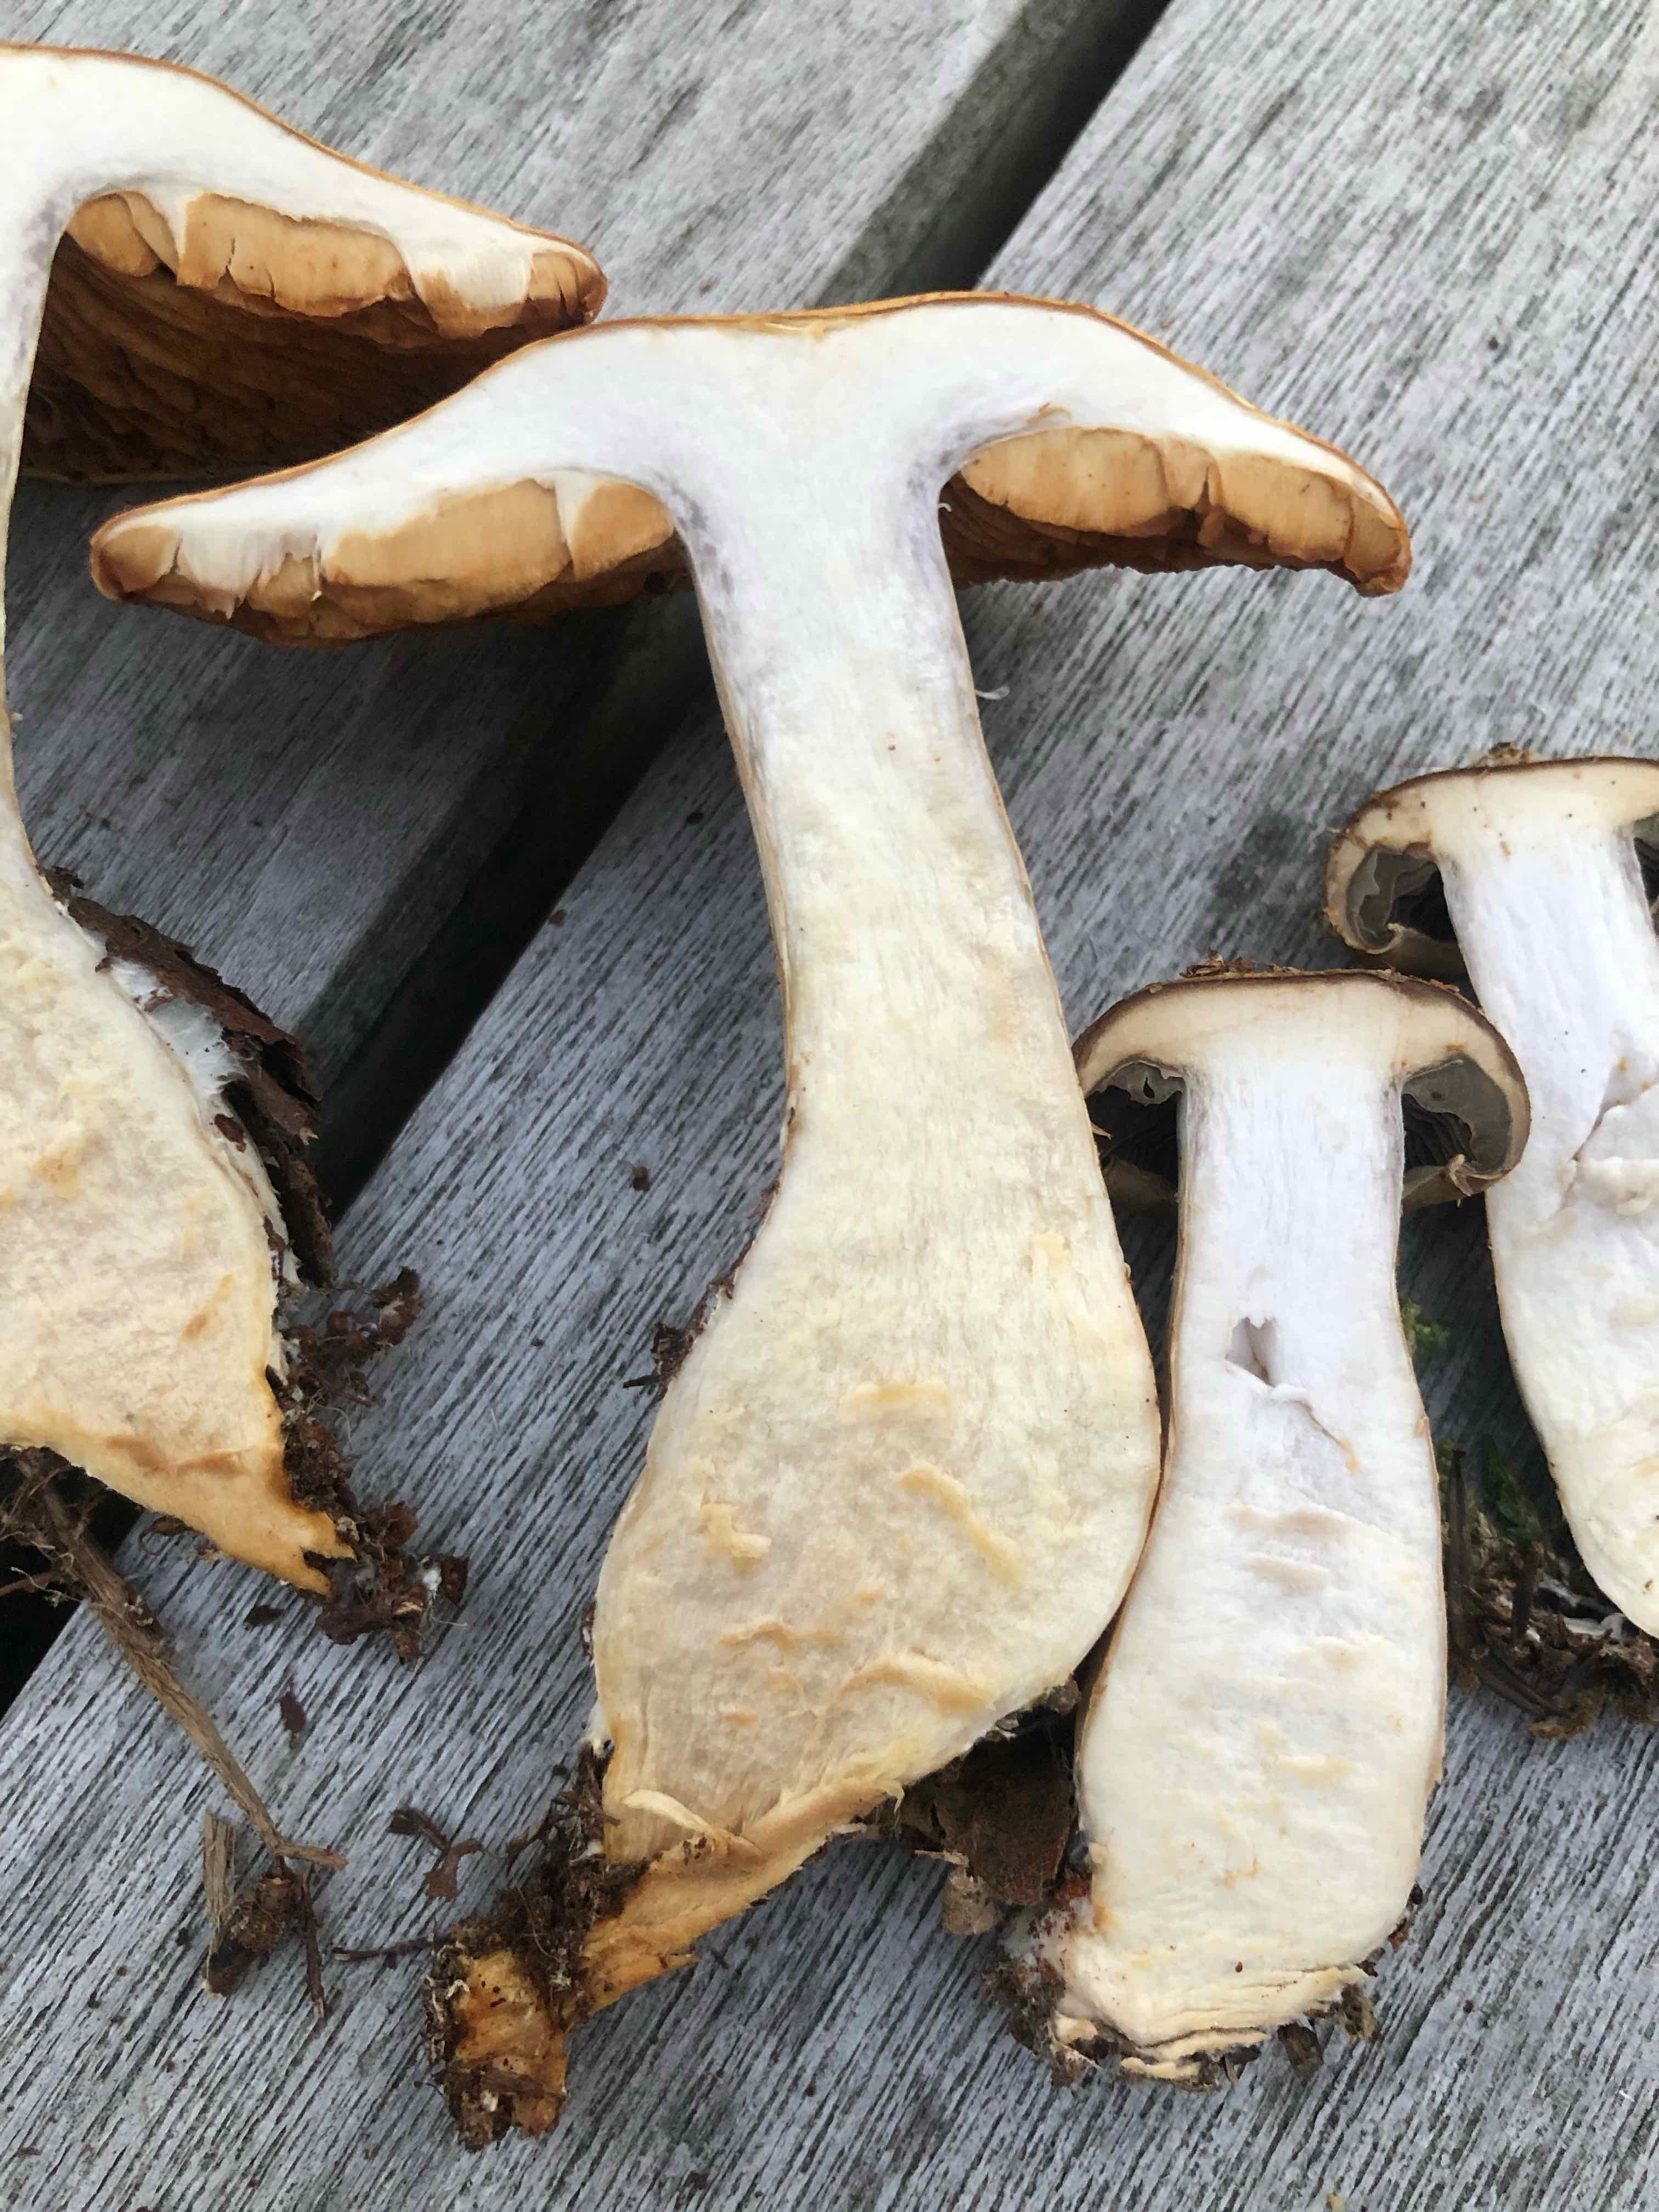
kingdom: Fungi
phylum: Basidiomycota
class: Agaricomycetes
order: Agaricales
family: Cortinariaceae
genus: Cortinarius
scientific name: Cortinarius
